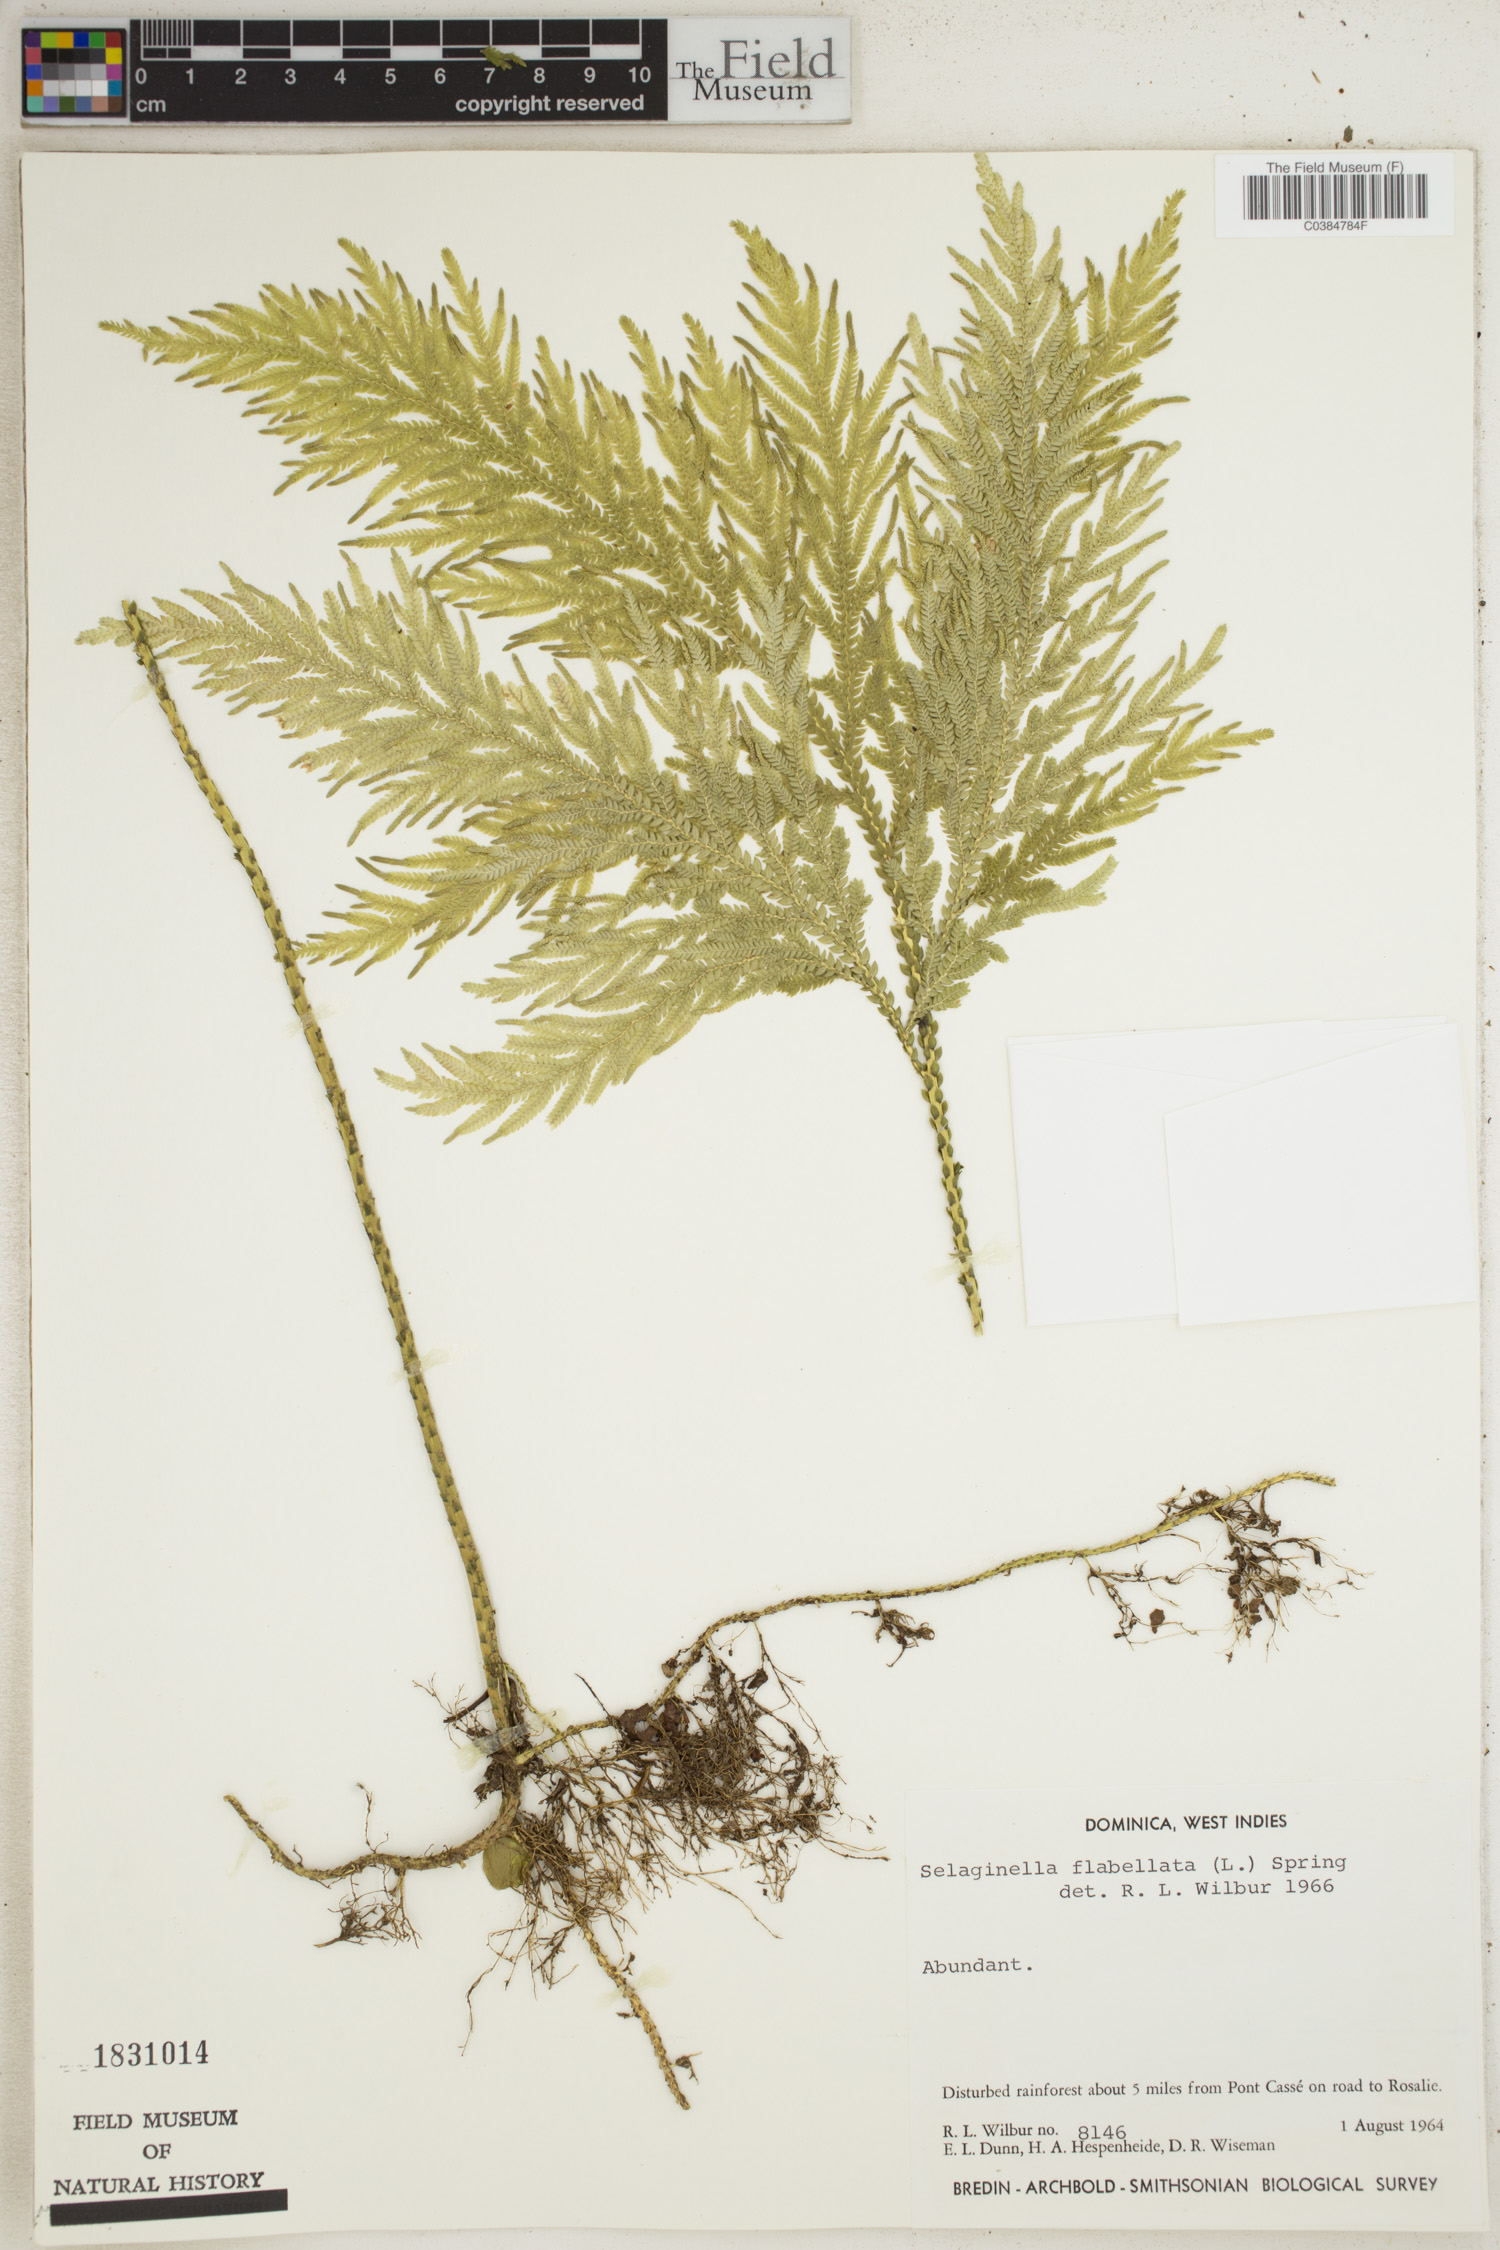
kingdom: Plantae
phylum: Tracheophyta
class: Lycopodiopsida
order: Selaginellales
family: Selaginellaceae
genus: Selaginella
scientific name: Selaginella flabellata
